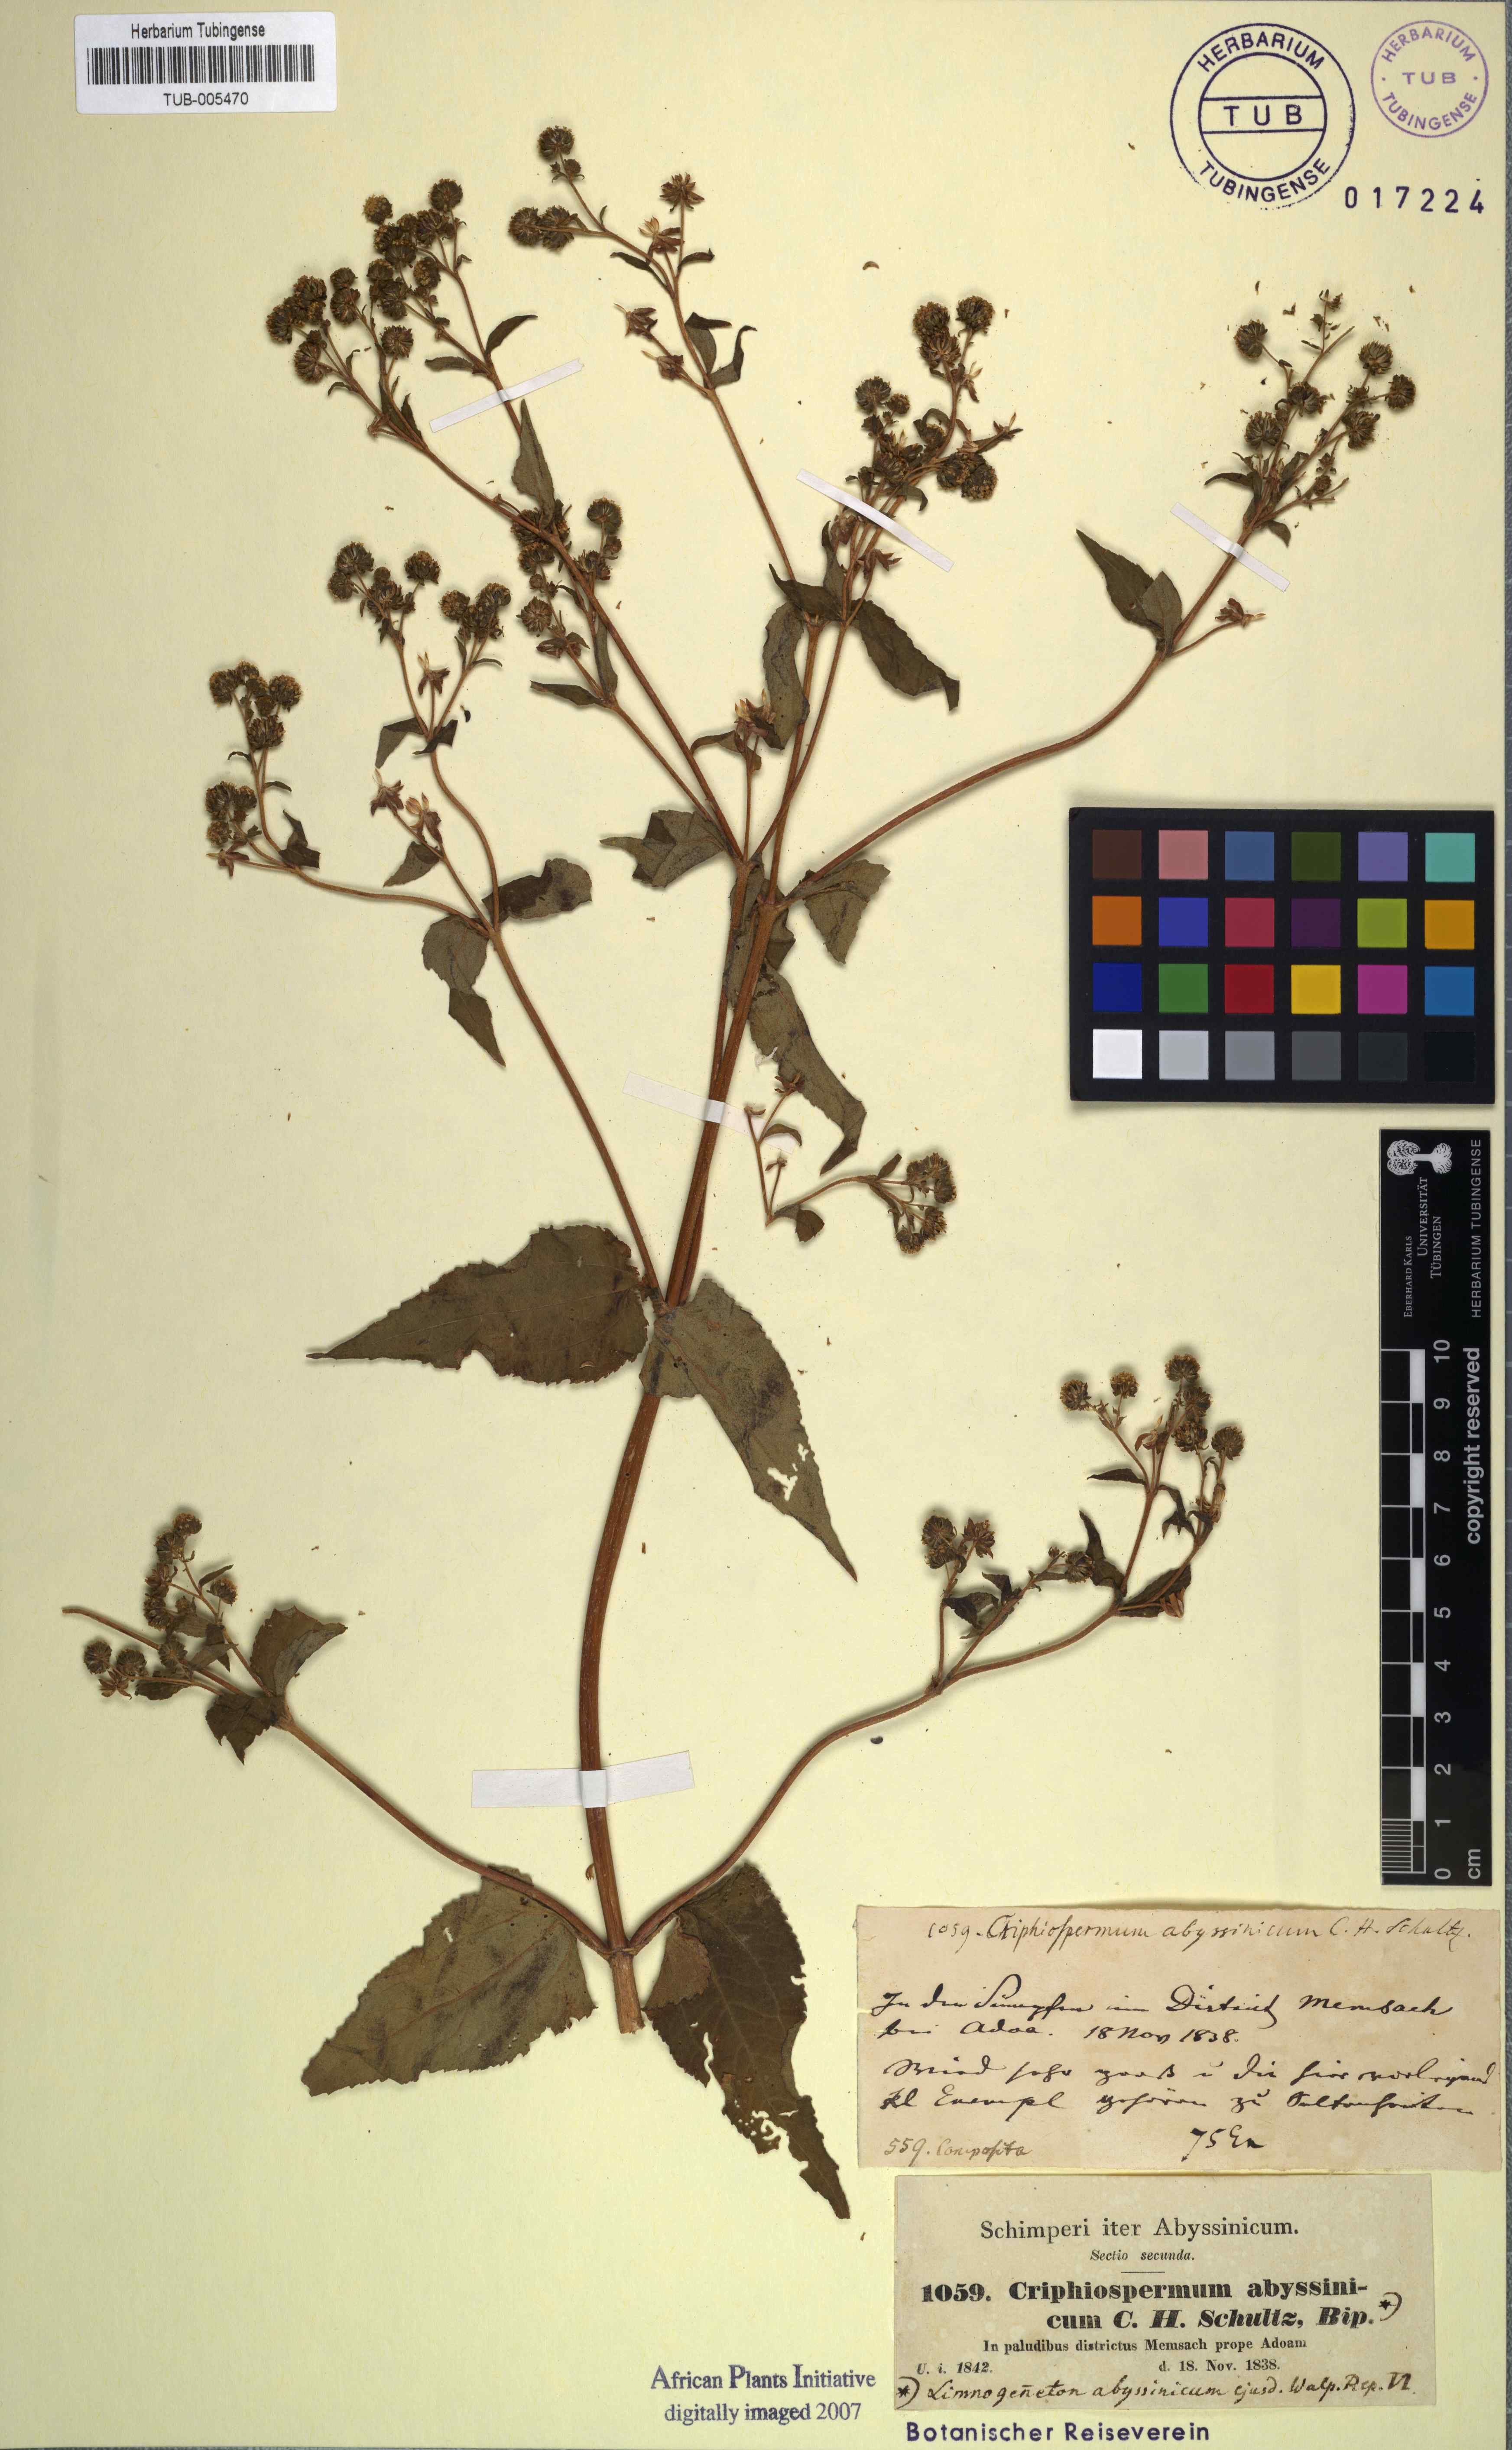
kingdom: Plantae
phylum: Tracheophyta
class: Magnoliopsida
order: Asterales
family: Asteraceae
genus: Micractis
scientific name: Micractis bojeri
